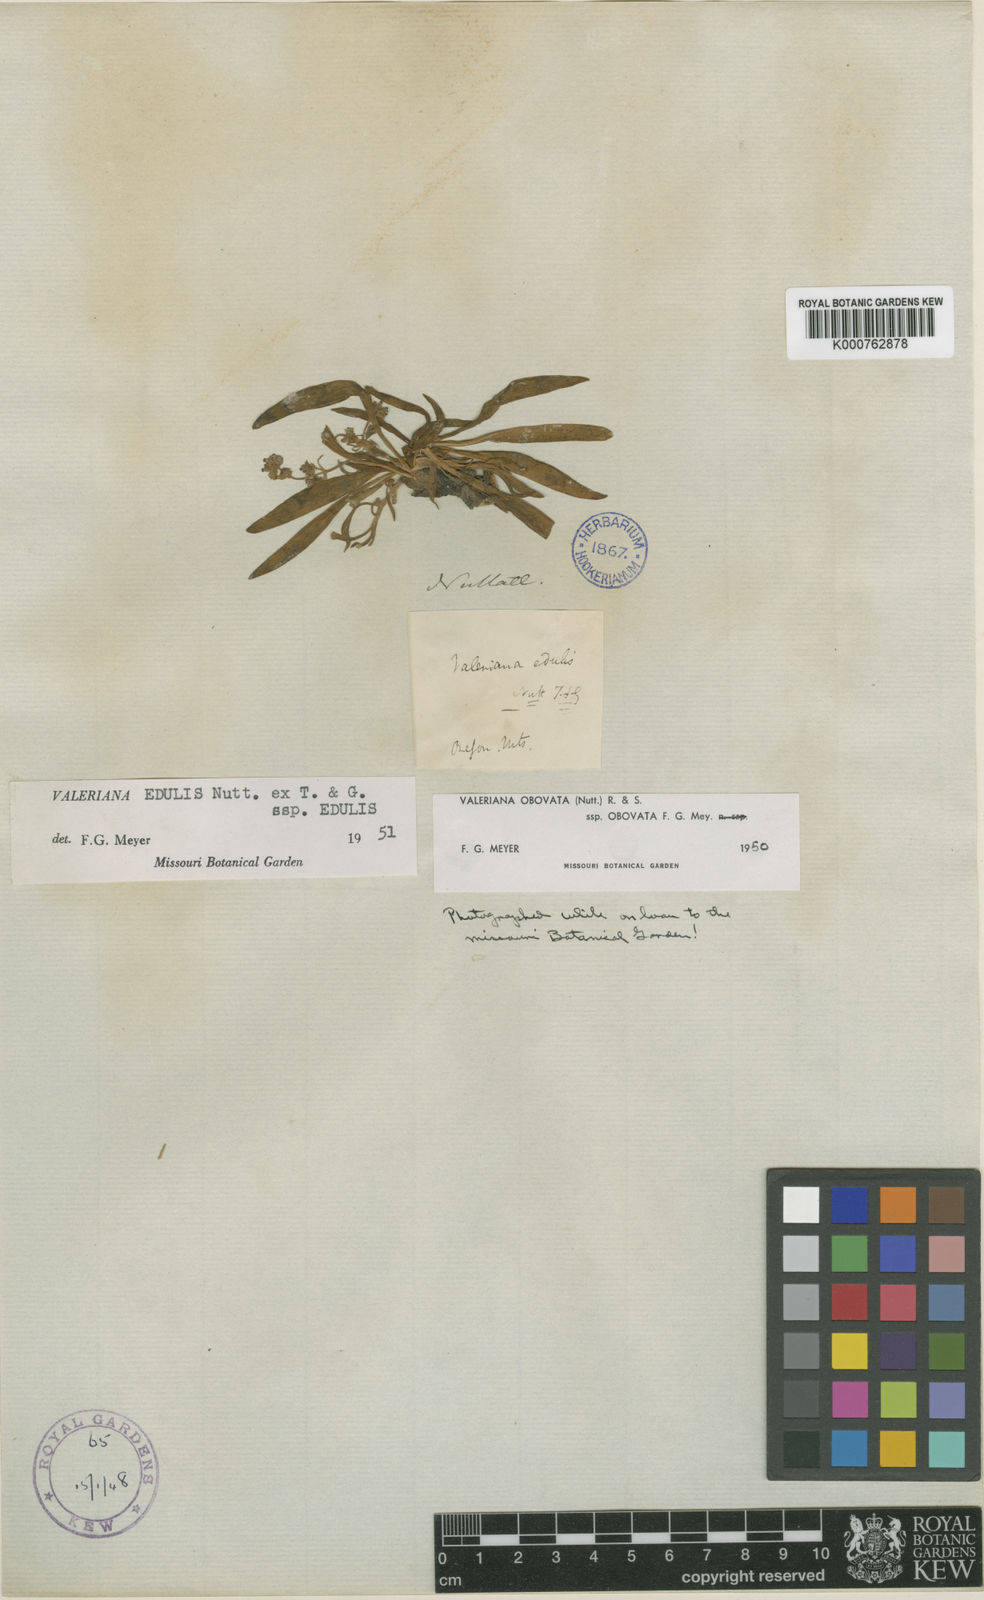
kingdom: Plantae
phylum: Tracheophyta
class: Magnoliopsida
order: Dipsacales
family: Caprifoliaceae
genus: Valeriana
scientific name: Valeriana edulis
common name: Taproot valerian
